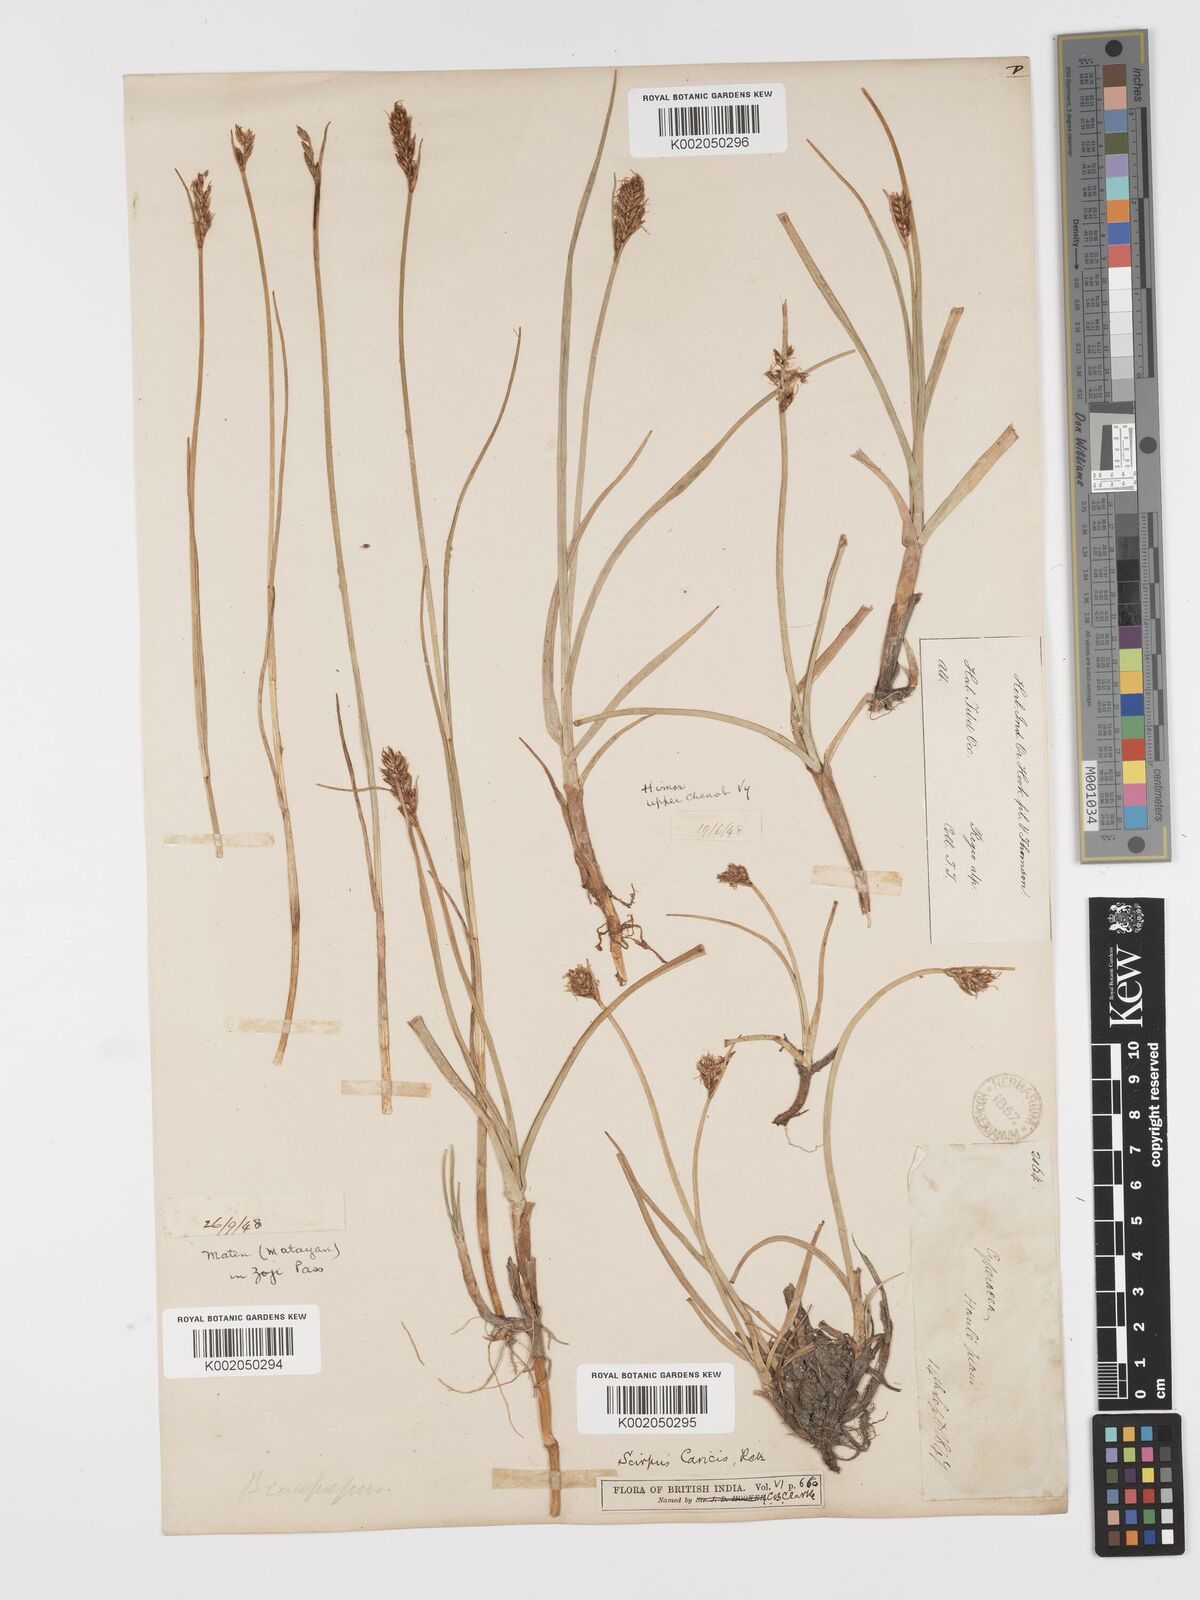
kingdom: Plantae
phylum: Tracheophyta
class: Liliopsida
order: Poales
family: Cyperaceae
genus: Blysmus
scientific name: Blysmus compressus
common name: Flat-sedge
